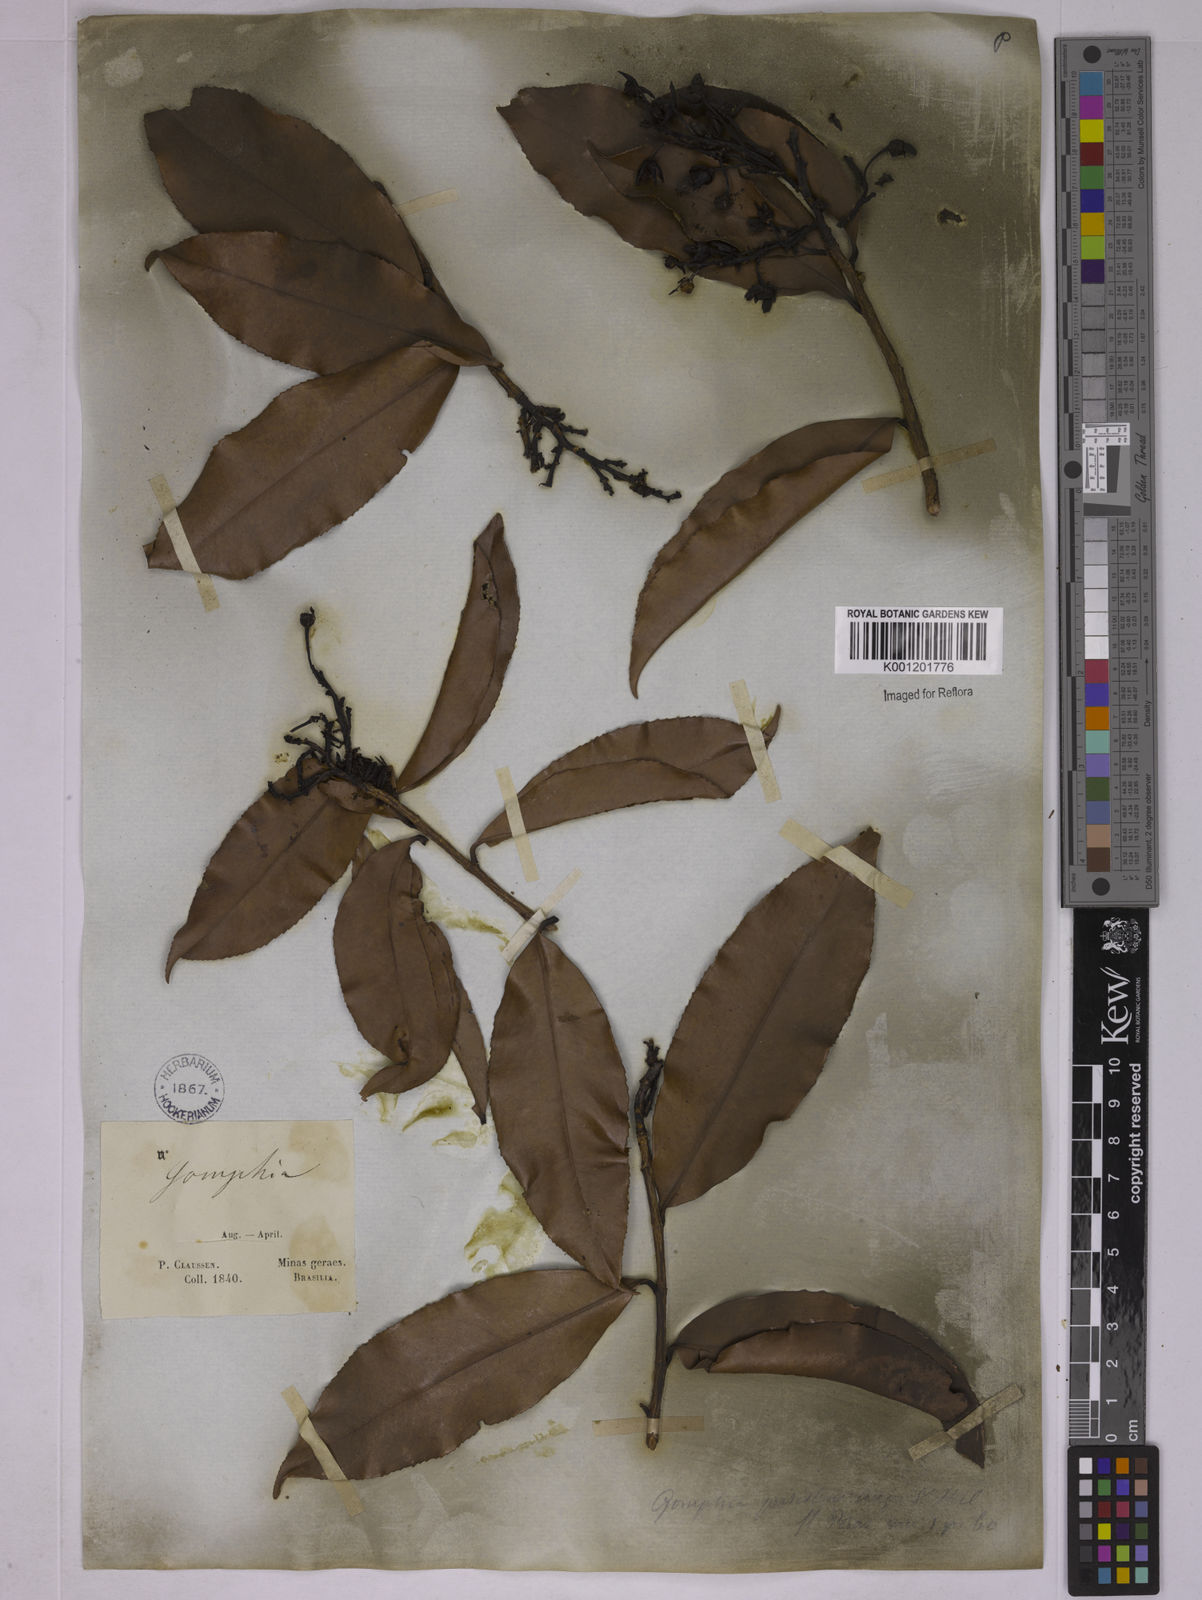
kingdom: Plantae
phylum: Tracheophyta
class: Magnoliopsida
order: Malpighiales
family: Ochnaceae
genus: Ouratea
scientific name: Ouratea semiserrata
